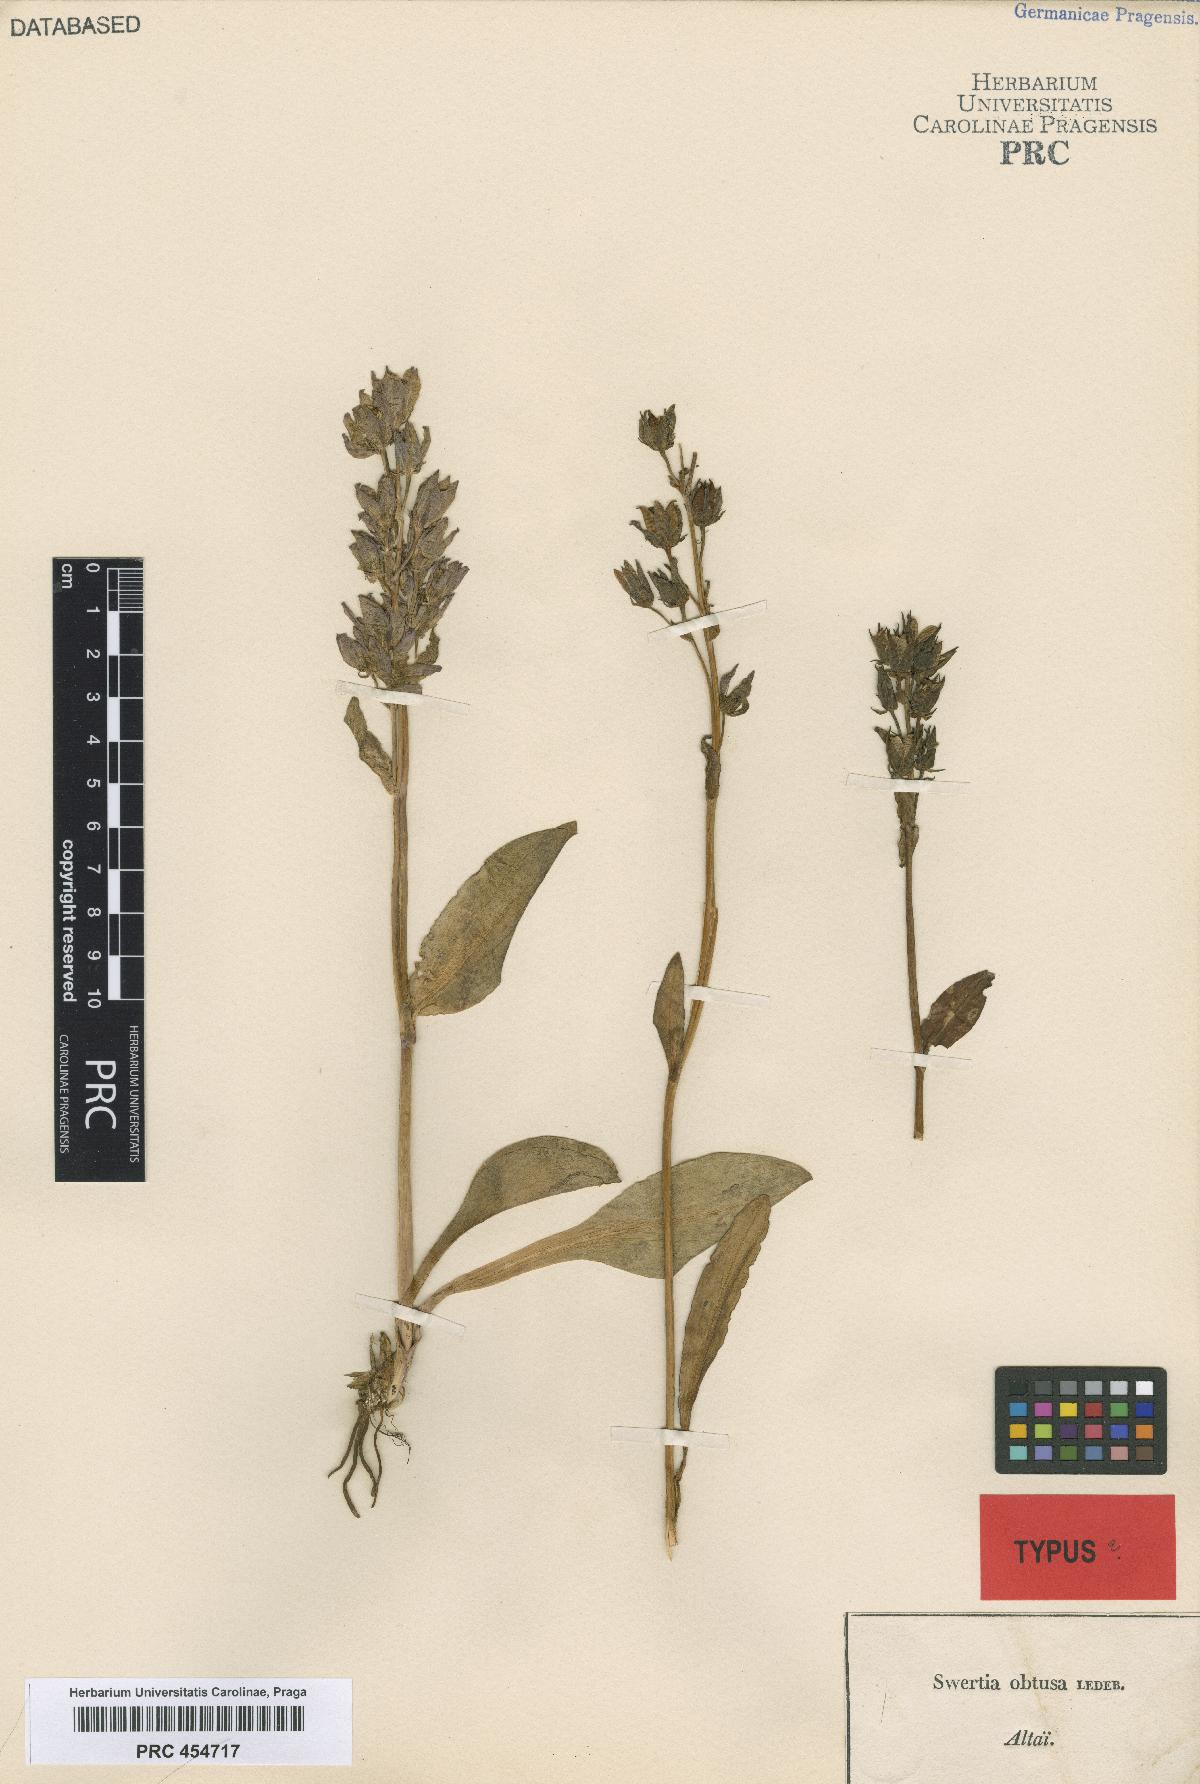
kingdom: Plantae
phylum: Tracheophyta
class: Magnoliopsida
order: Gentianales
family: Gentianaceae
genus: Swertia
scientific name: Swertia obtusa
